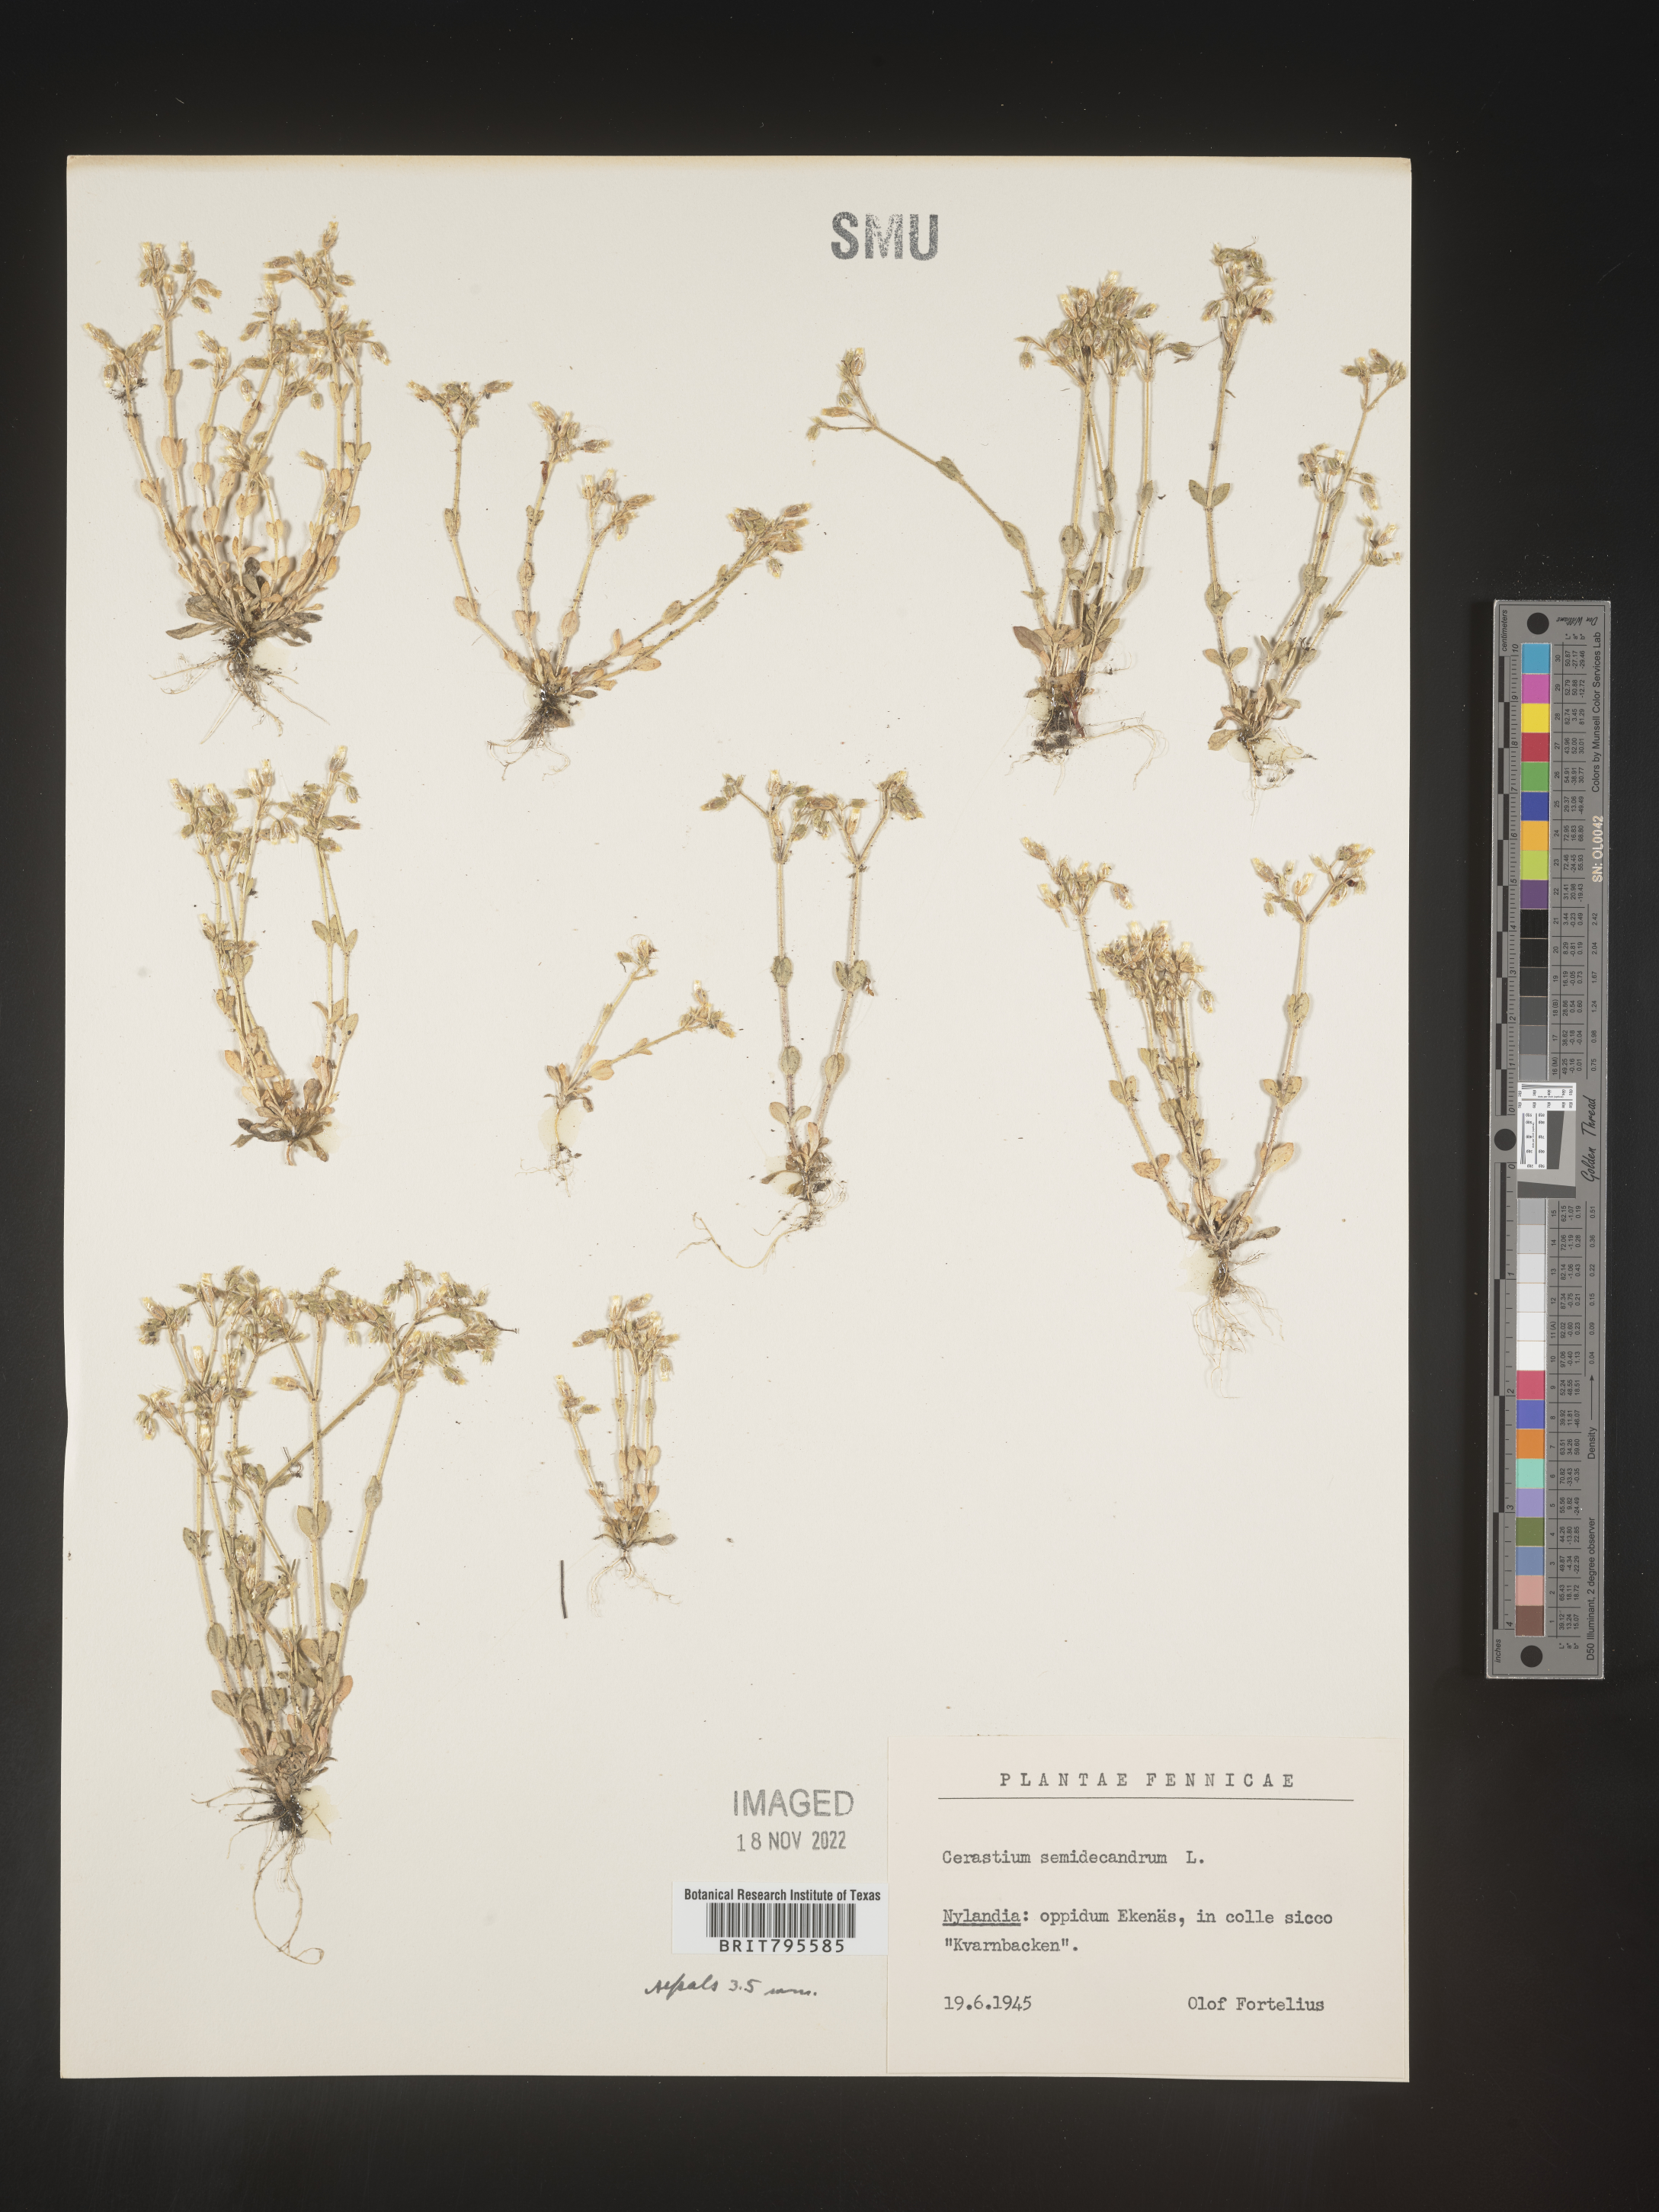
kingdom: Plantae
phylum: Tracheophyta
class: Magnoliopsida
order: Caryophyllales
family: Caryophyllaceae
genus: Cerastium
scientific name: Cerastium
